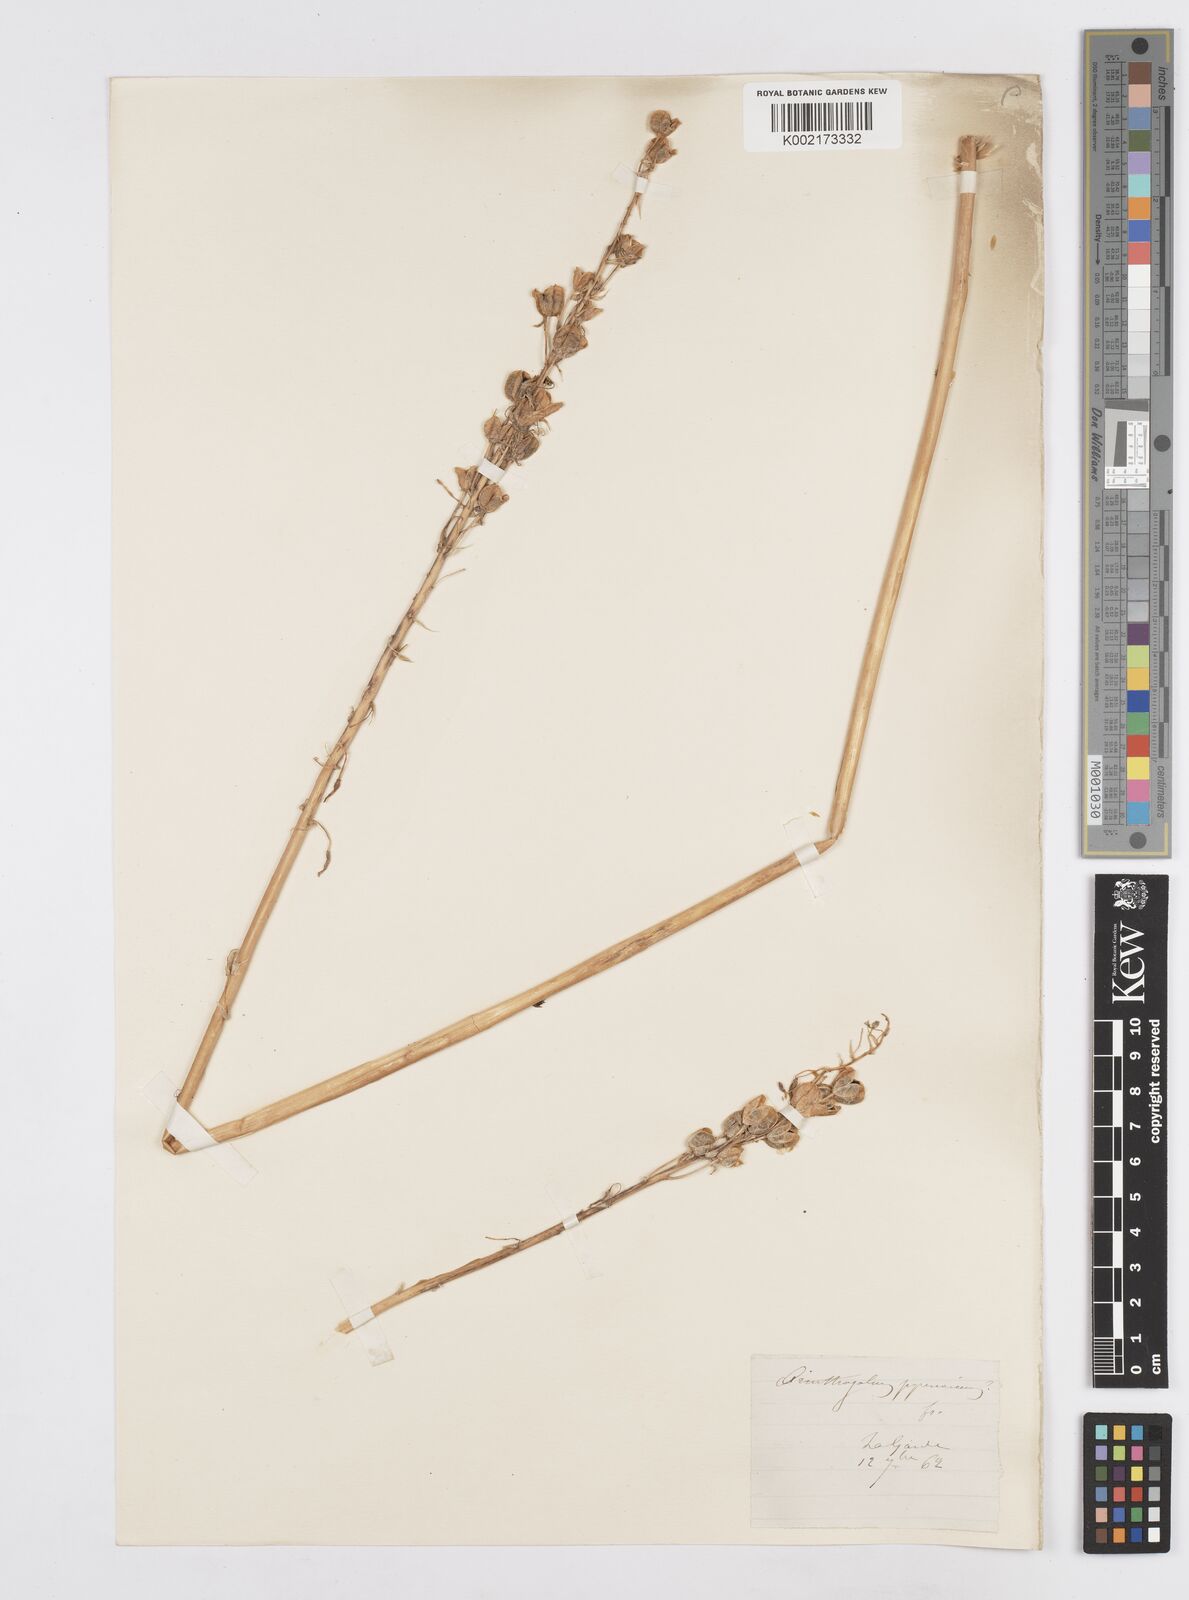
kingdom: Plantae
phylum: Tracheophyta
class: Liliopsida
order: Asparagales
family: Asparagaceae
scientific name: Asparagaceae
